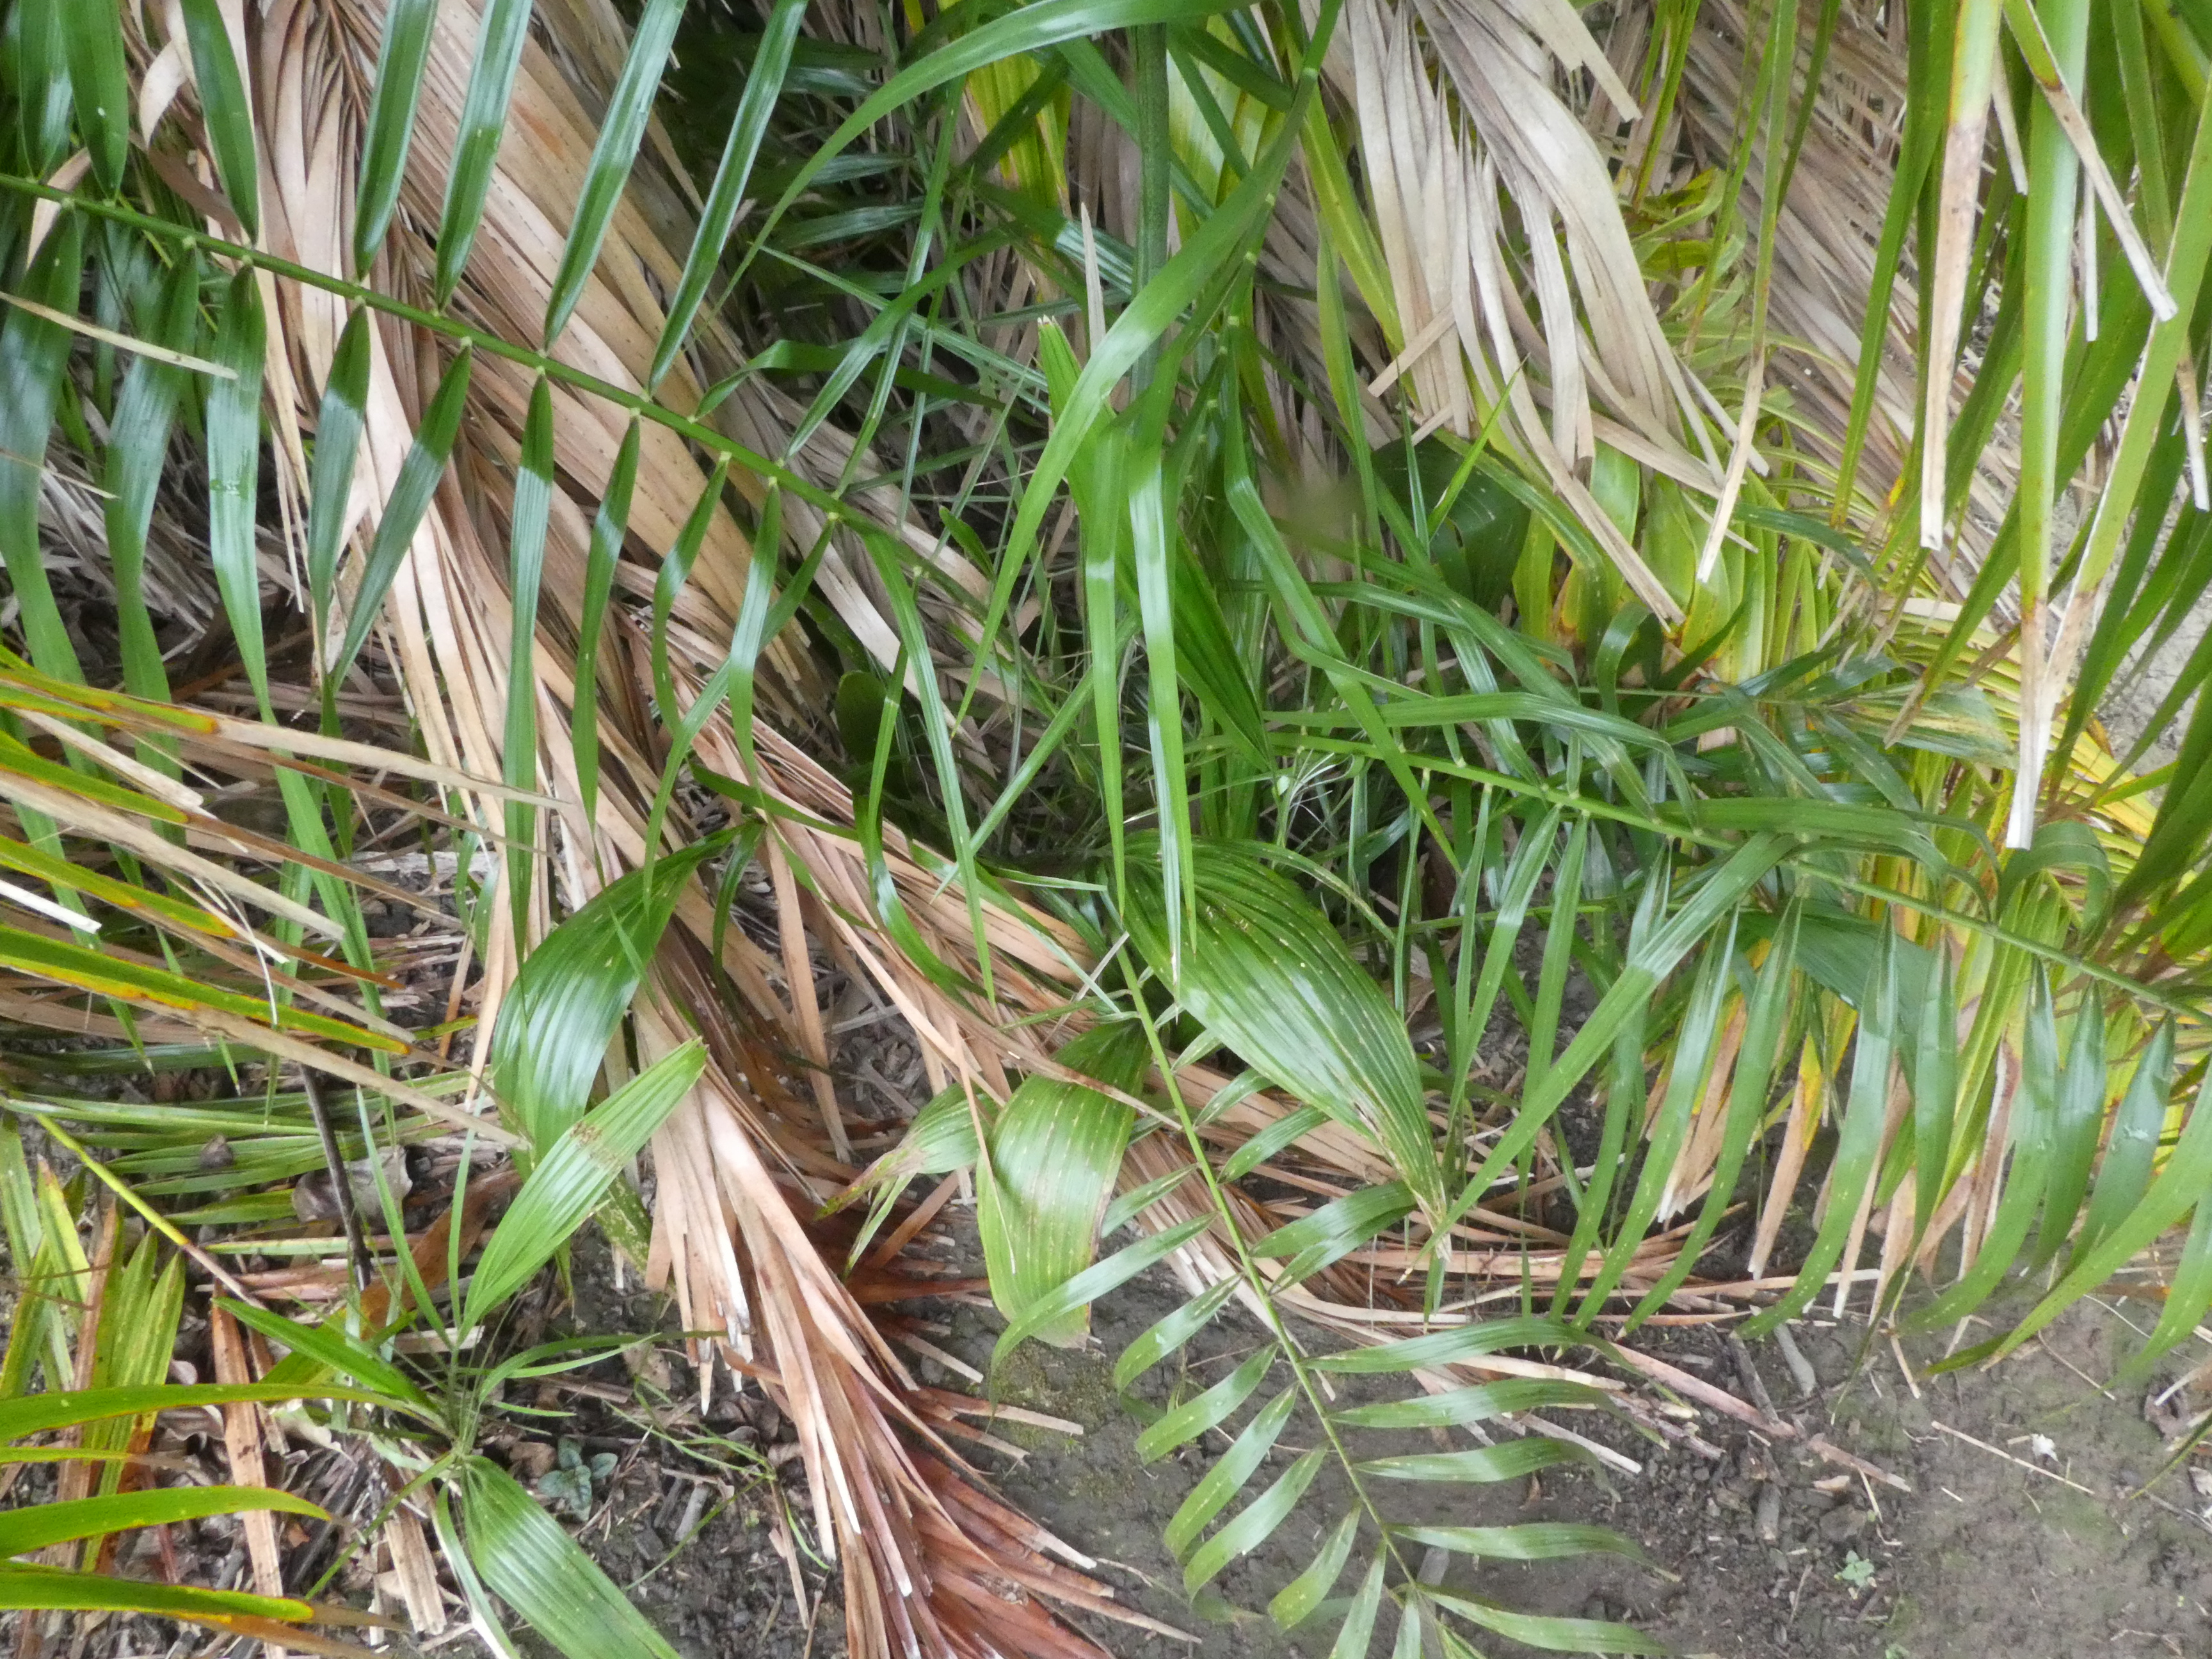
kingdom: Plantae
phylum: Tracheophyta
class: Liliopsida
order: Arecales
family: Arecaceae
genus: Phoenix
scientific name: Phoenix reclinata
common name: Senegal date palm
